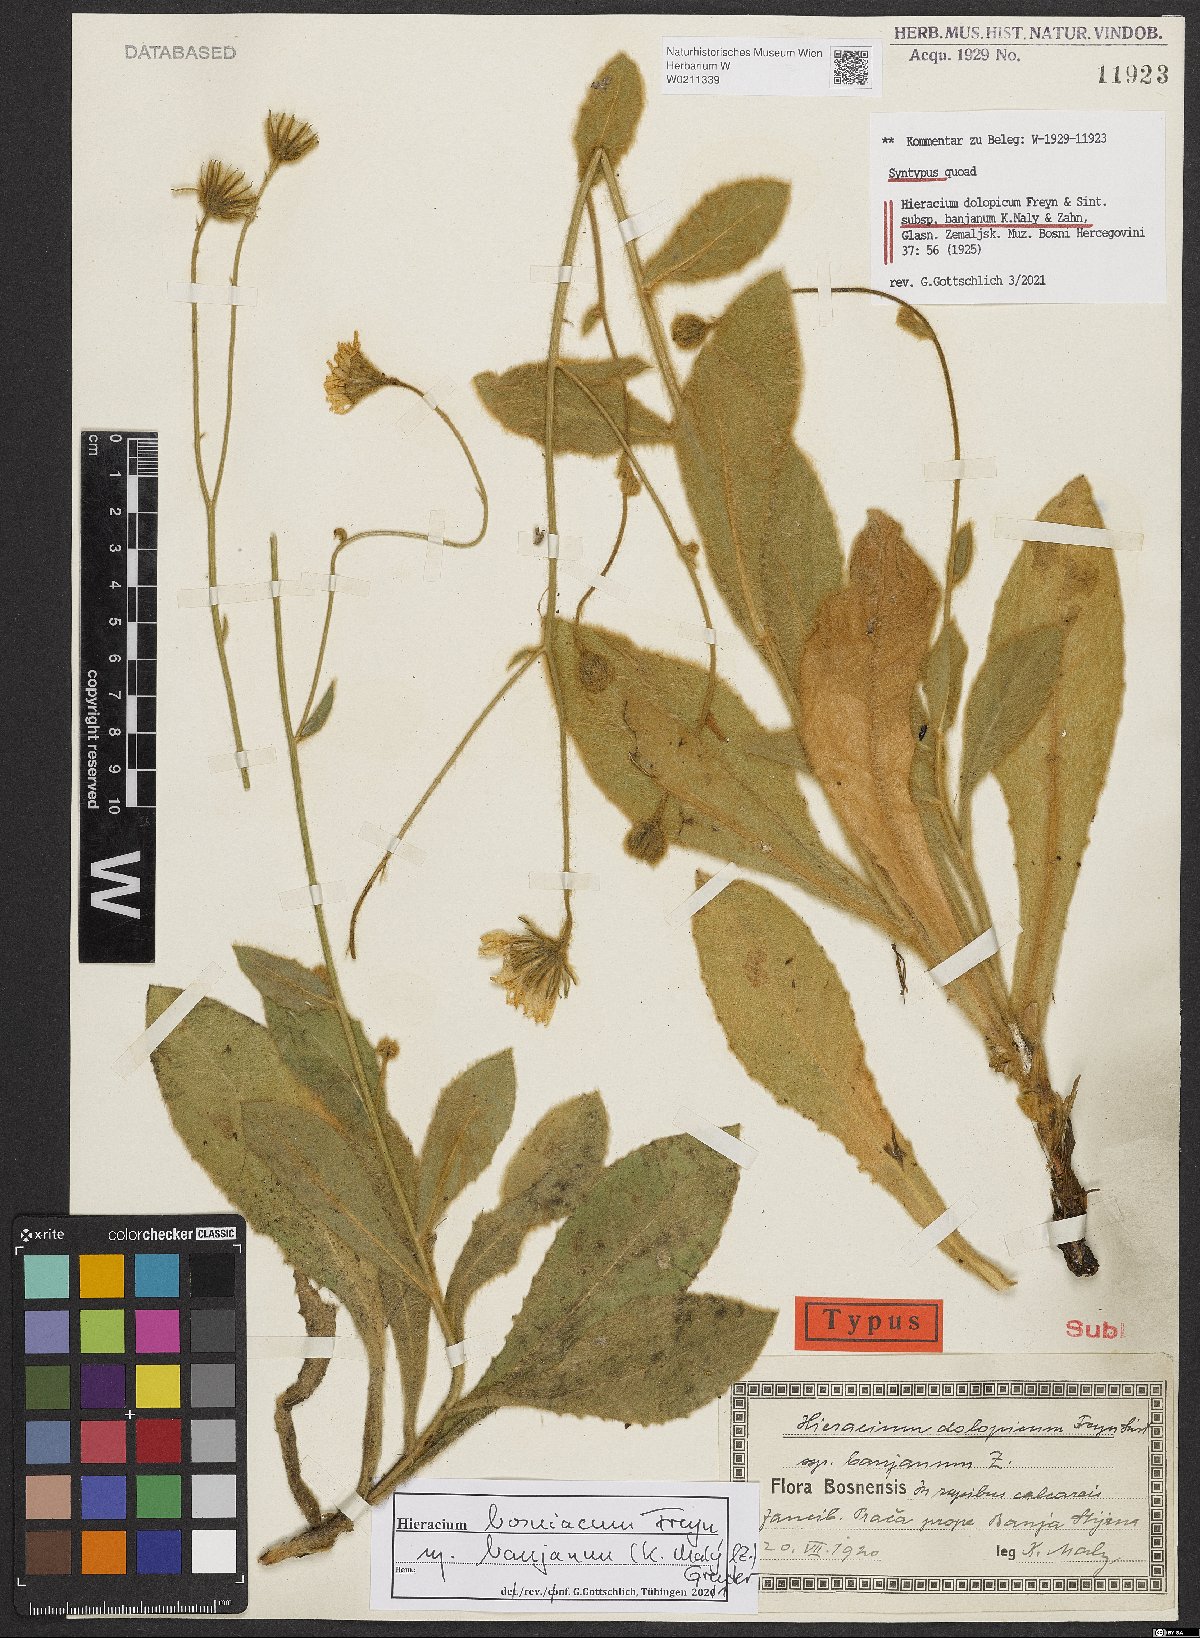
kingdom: Plantae
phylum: Tracheophyta
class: Magnoliopsida
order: Asterales
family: Asteraceae
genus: Hieracium
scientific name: Hieracium bosniacum
